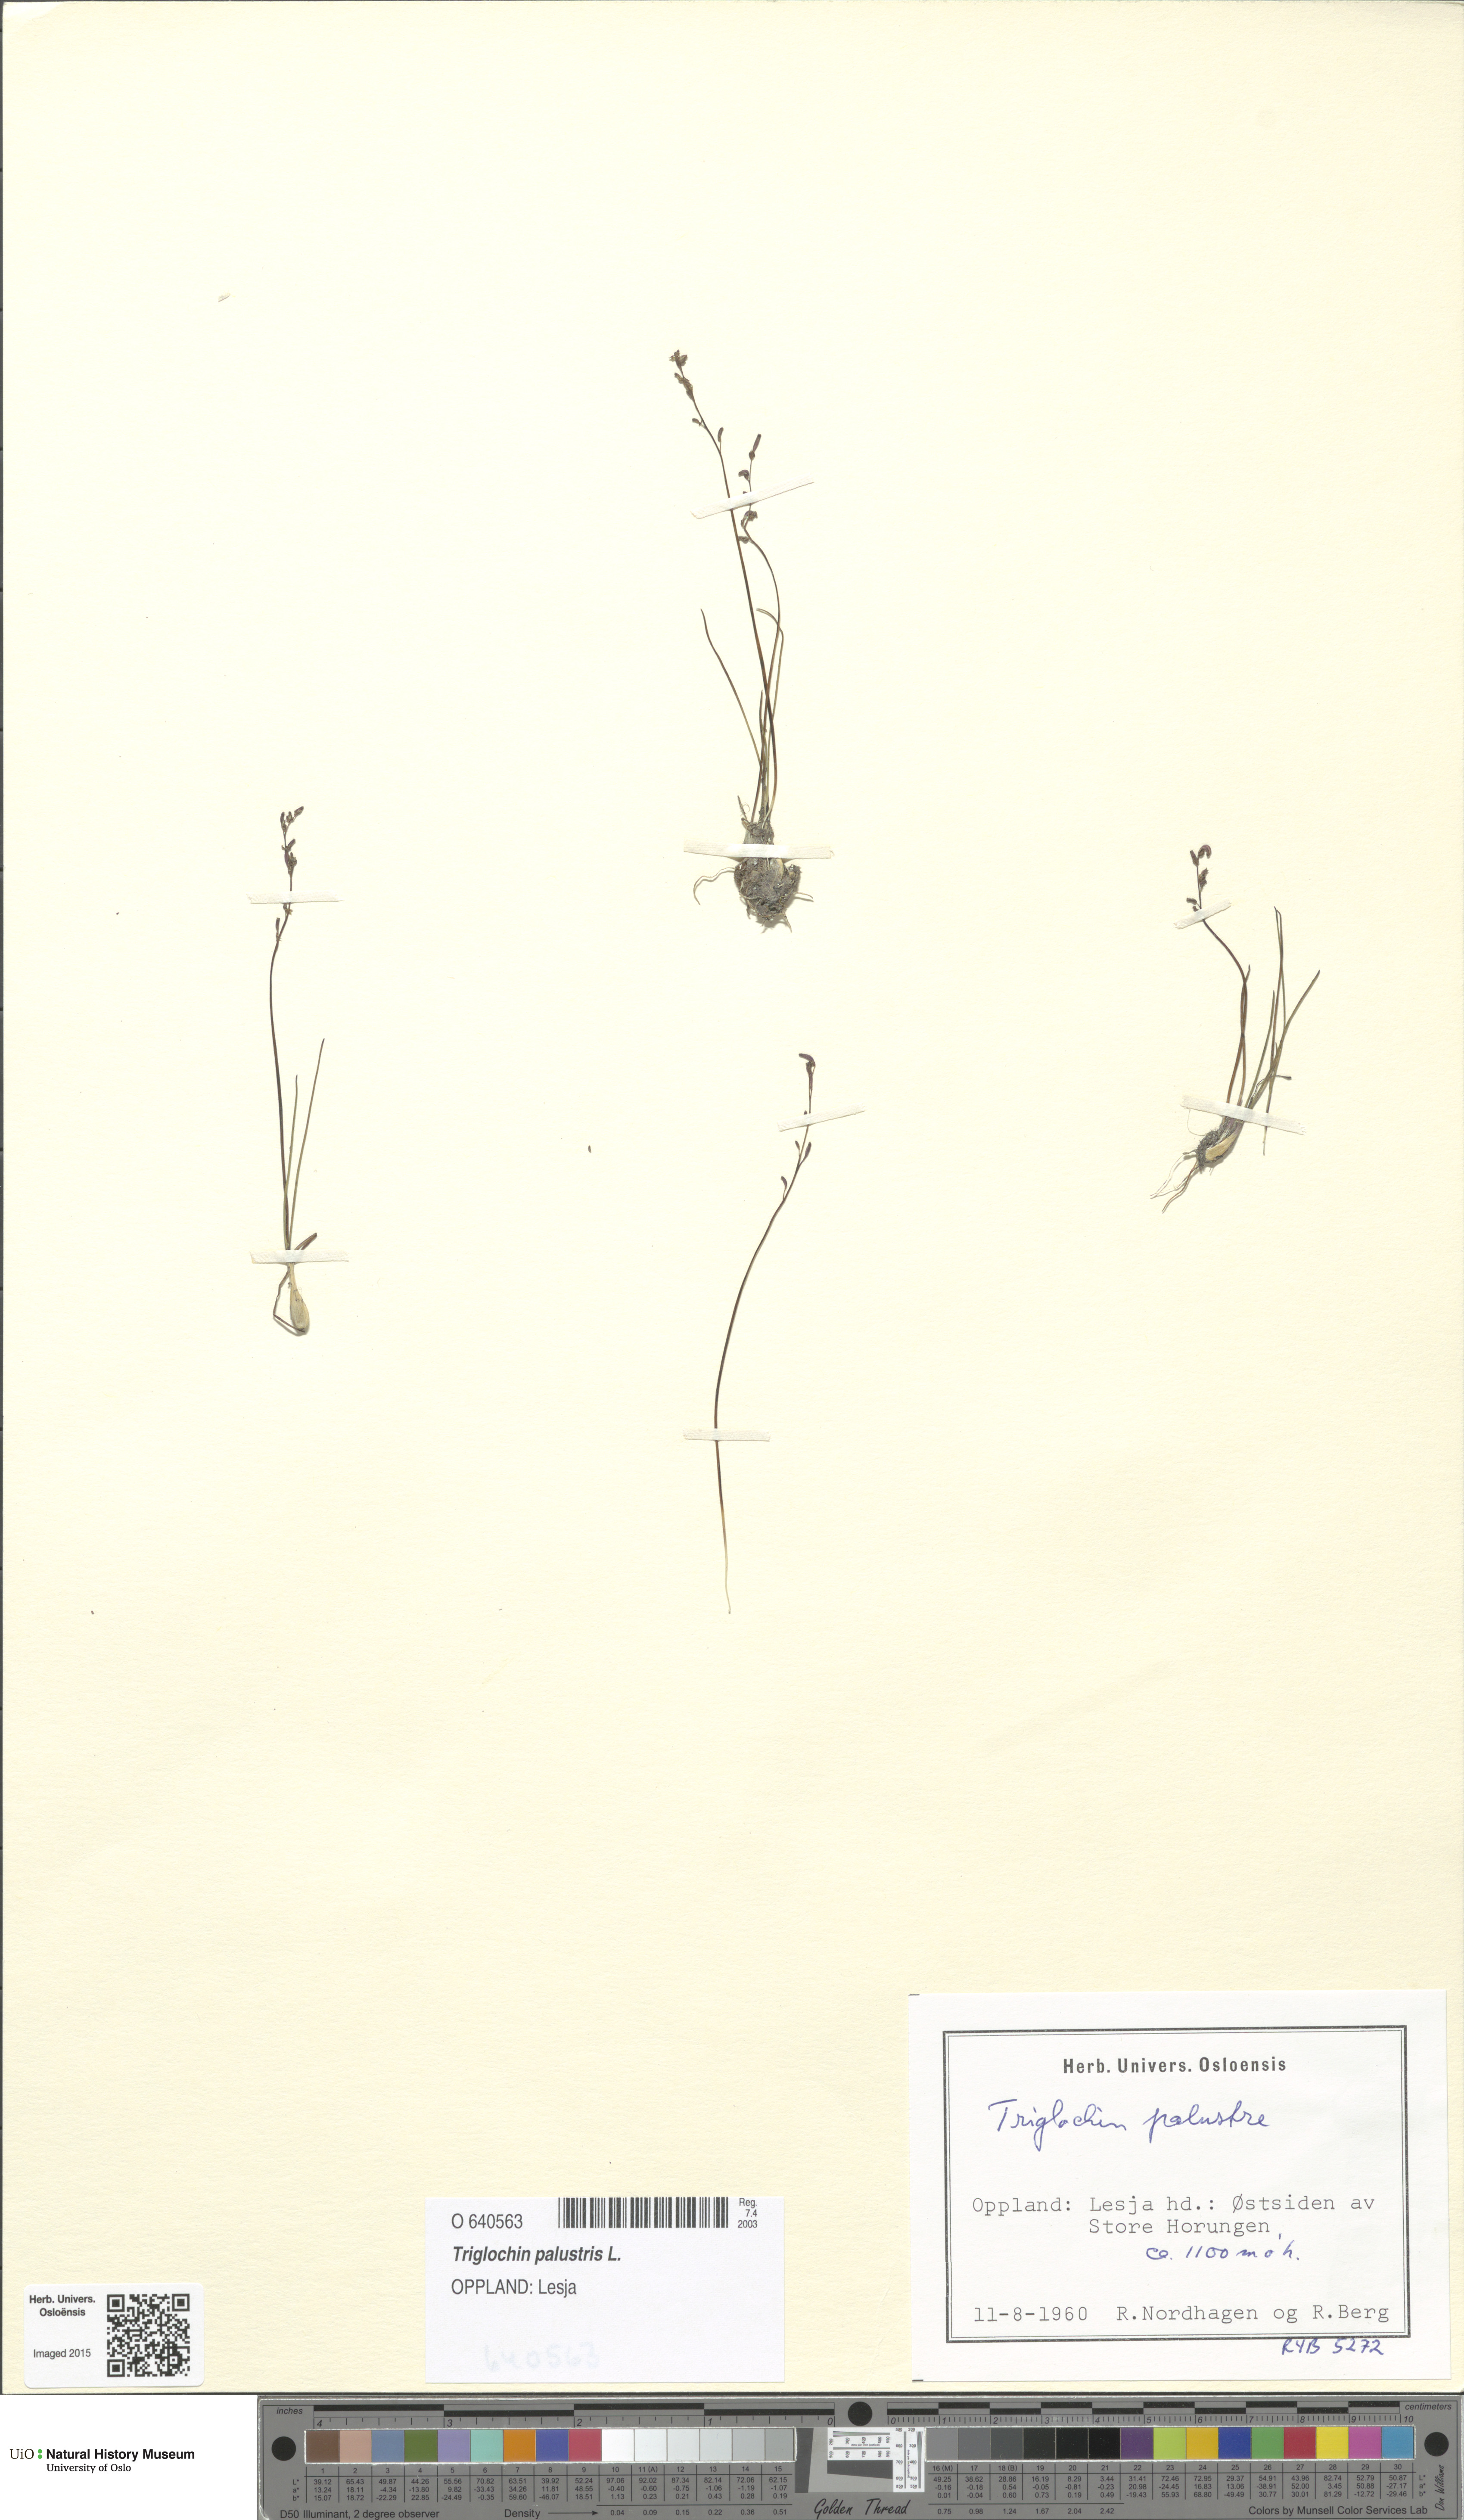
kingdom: Plantae
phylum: Tracheophyta
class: Liliopsida
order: Alismatales
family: Juncaginaceae
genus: Triglochin
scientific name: Triglochin palustris
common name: Marsh arrowgrass
